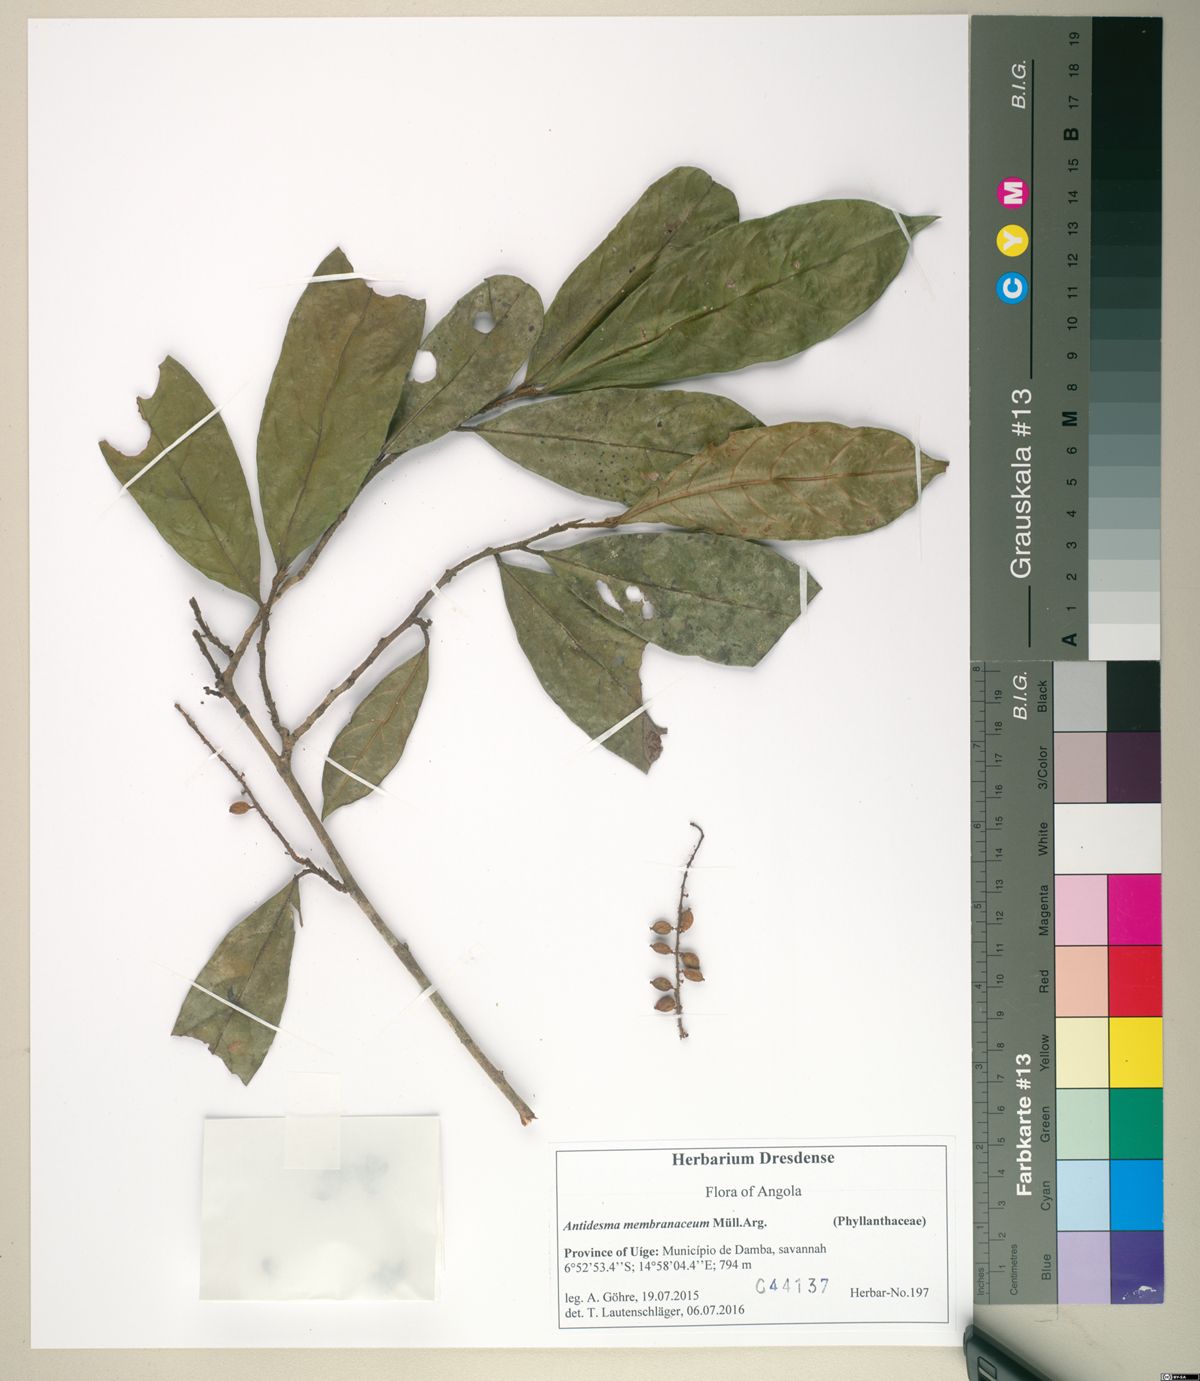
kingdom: Plantae
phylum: Tracheophyta
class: Magnoliopsida
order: Malpighiales
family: Phyllanthaceae
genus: Antidesma
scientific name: Antidesma vogelianum
